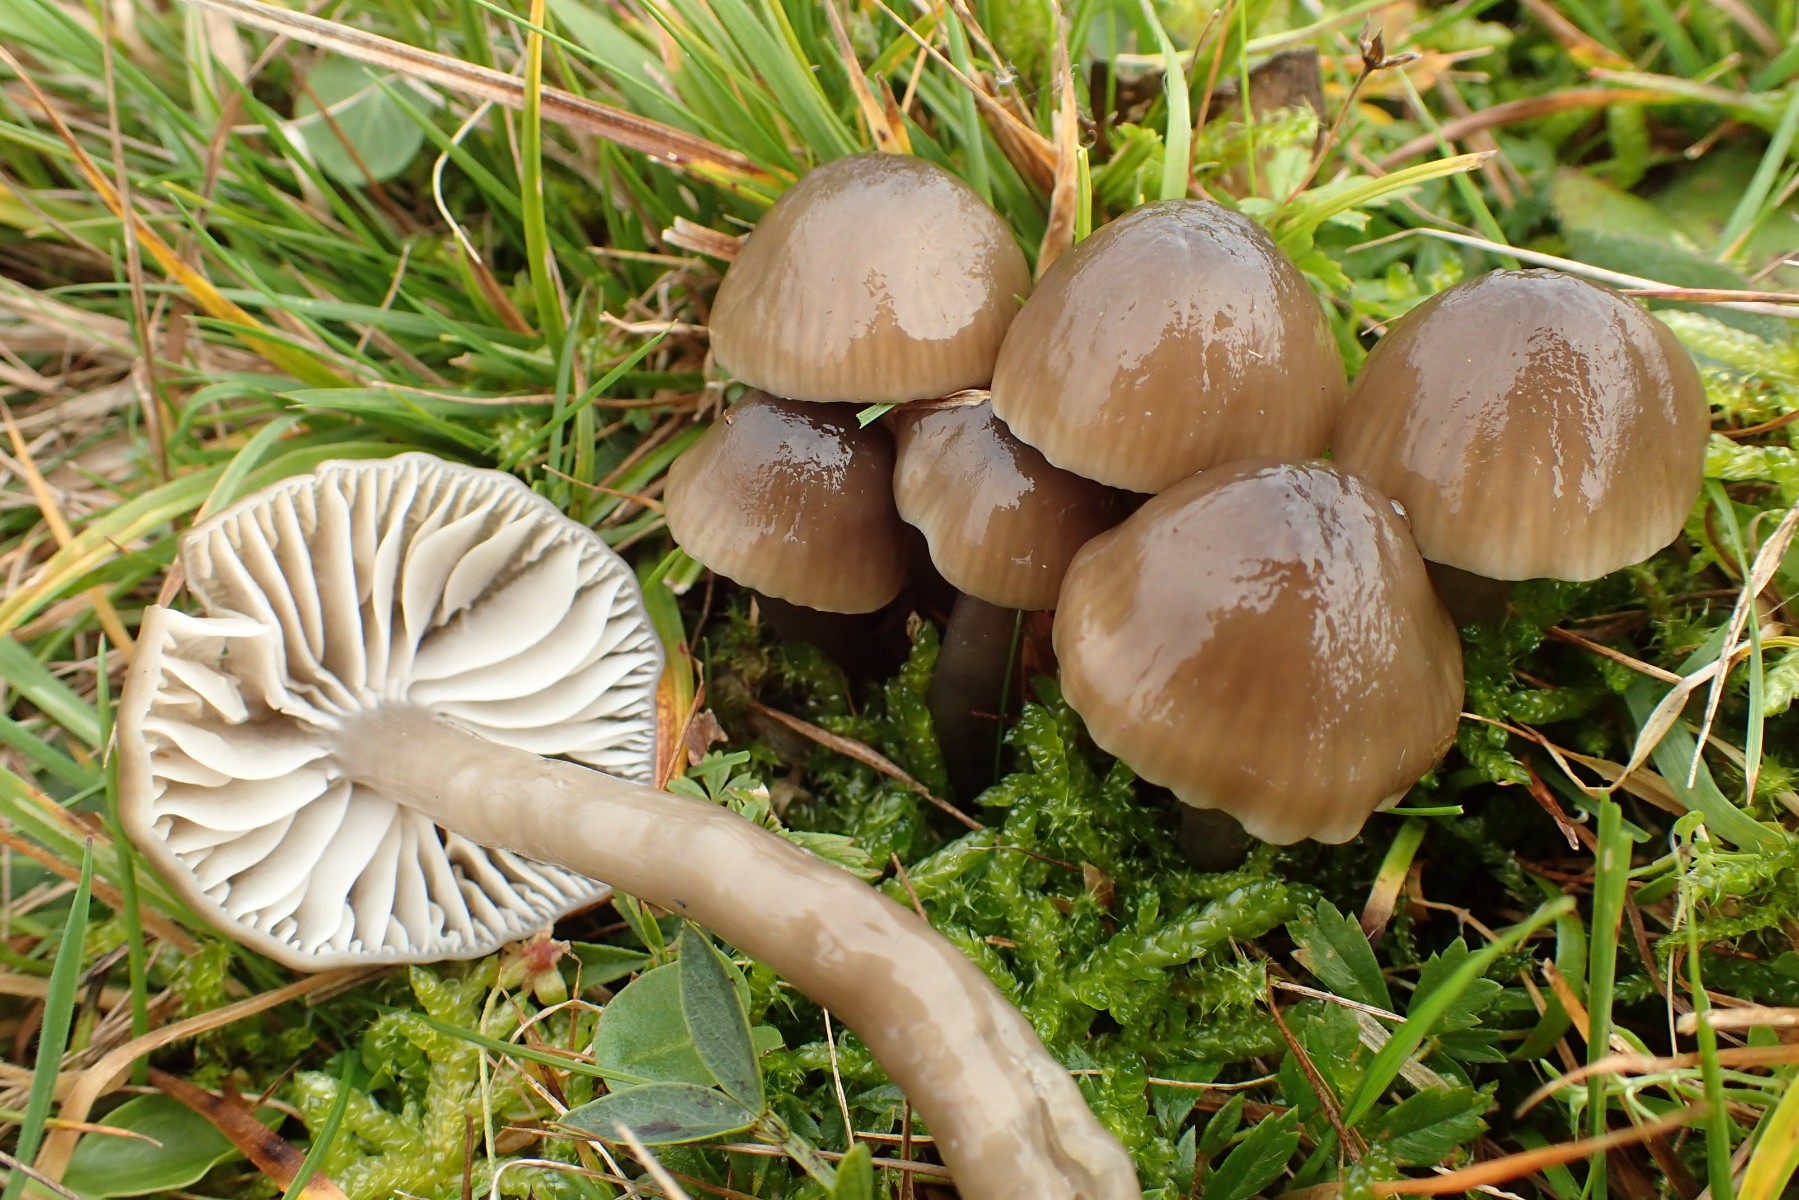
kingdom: Fungi
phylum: Basidiomycota
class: Agaricomycetes
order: Agaricales
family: Hygrophoraceae
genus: Gliophorus
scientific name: Gliophorus irrigatus
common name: slimet vokshat
